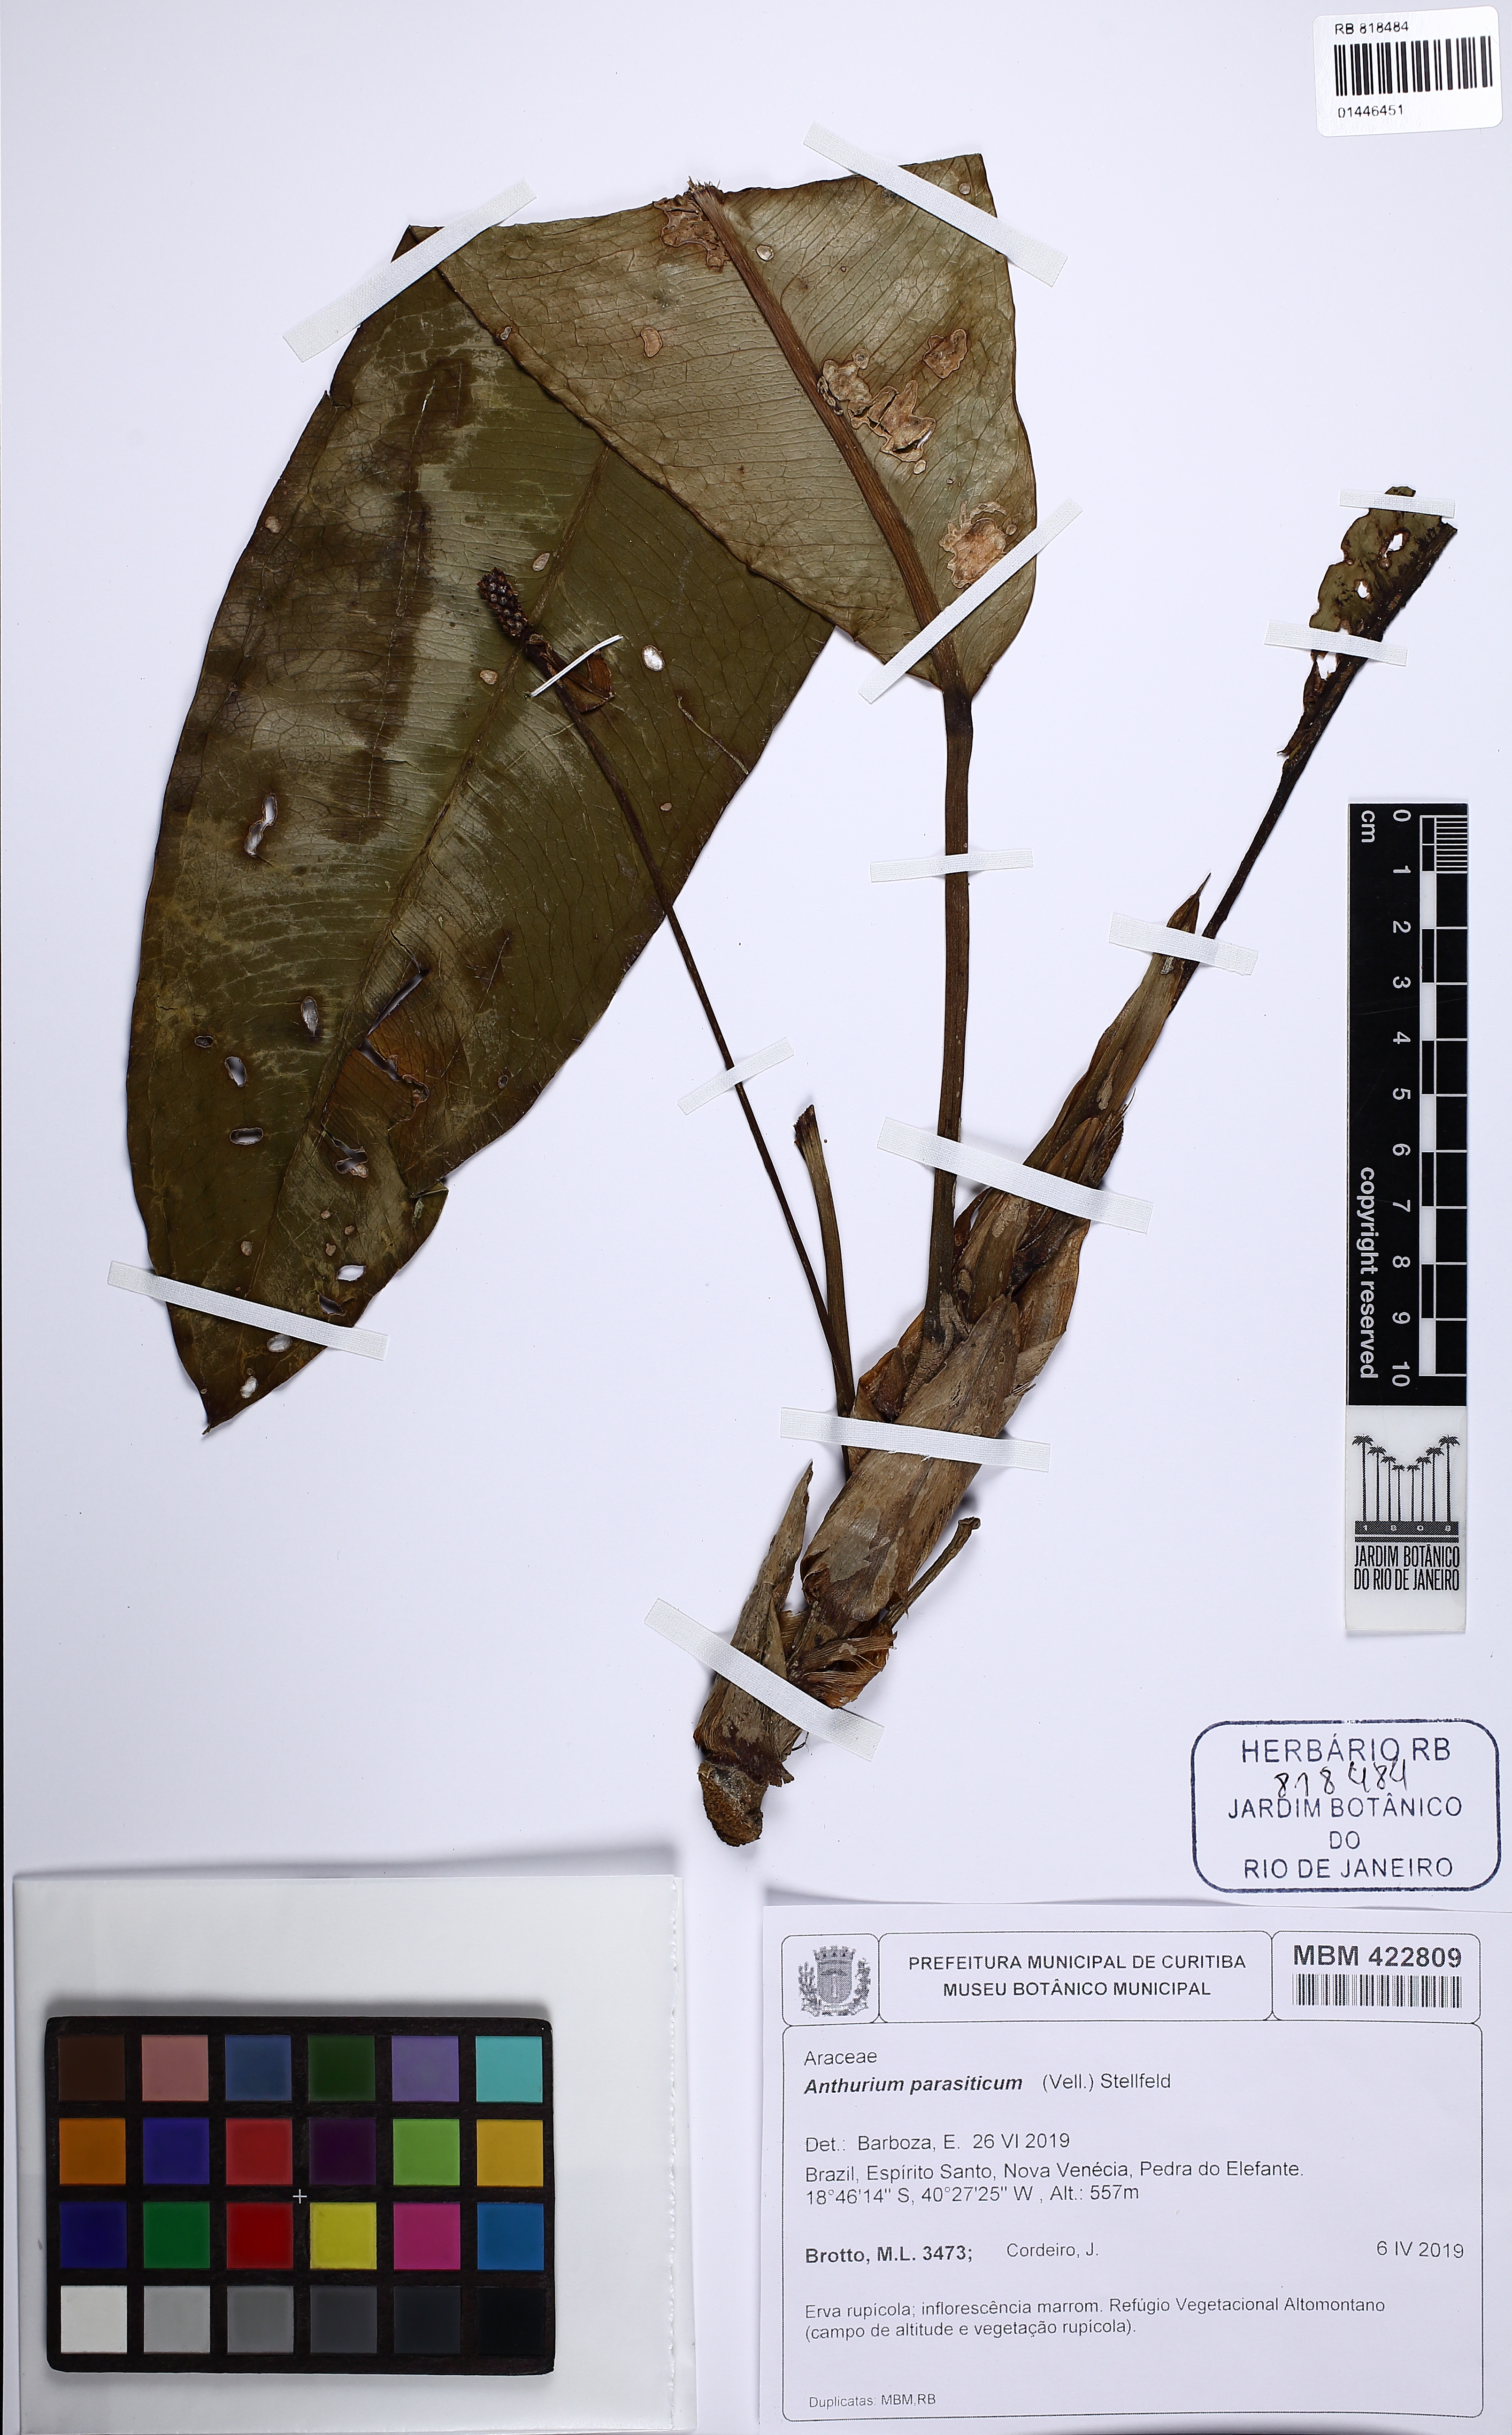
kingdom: Plantae
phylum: Tracheophyta
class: Liliopsida
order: Alismatales
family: Araceae
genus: Anthurium
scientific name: Anthurium parasiticum
